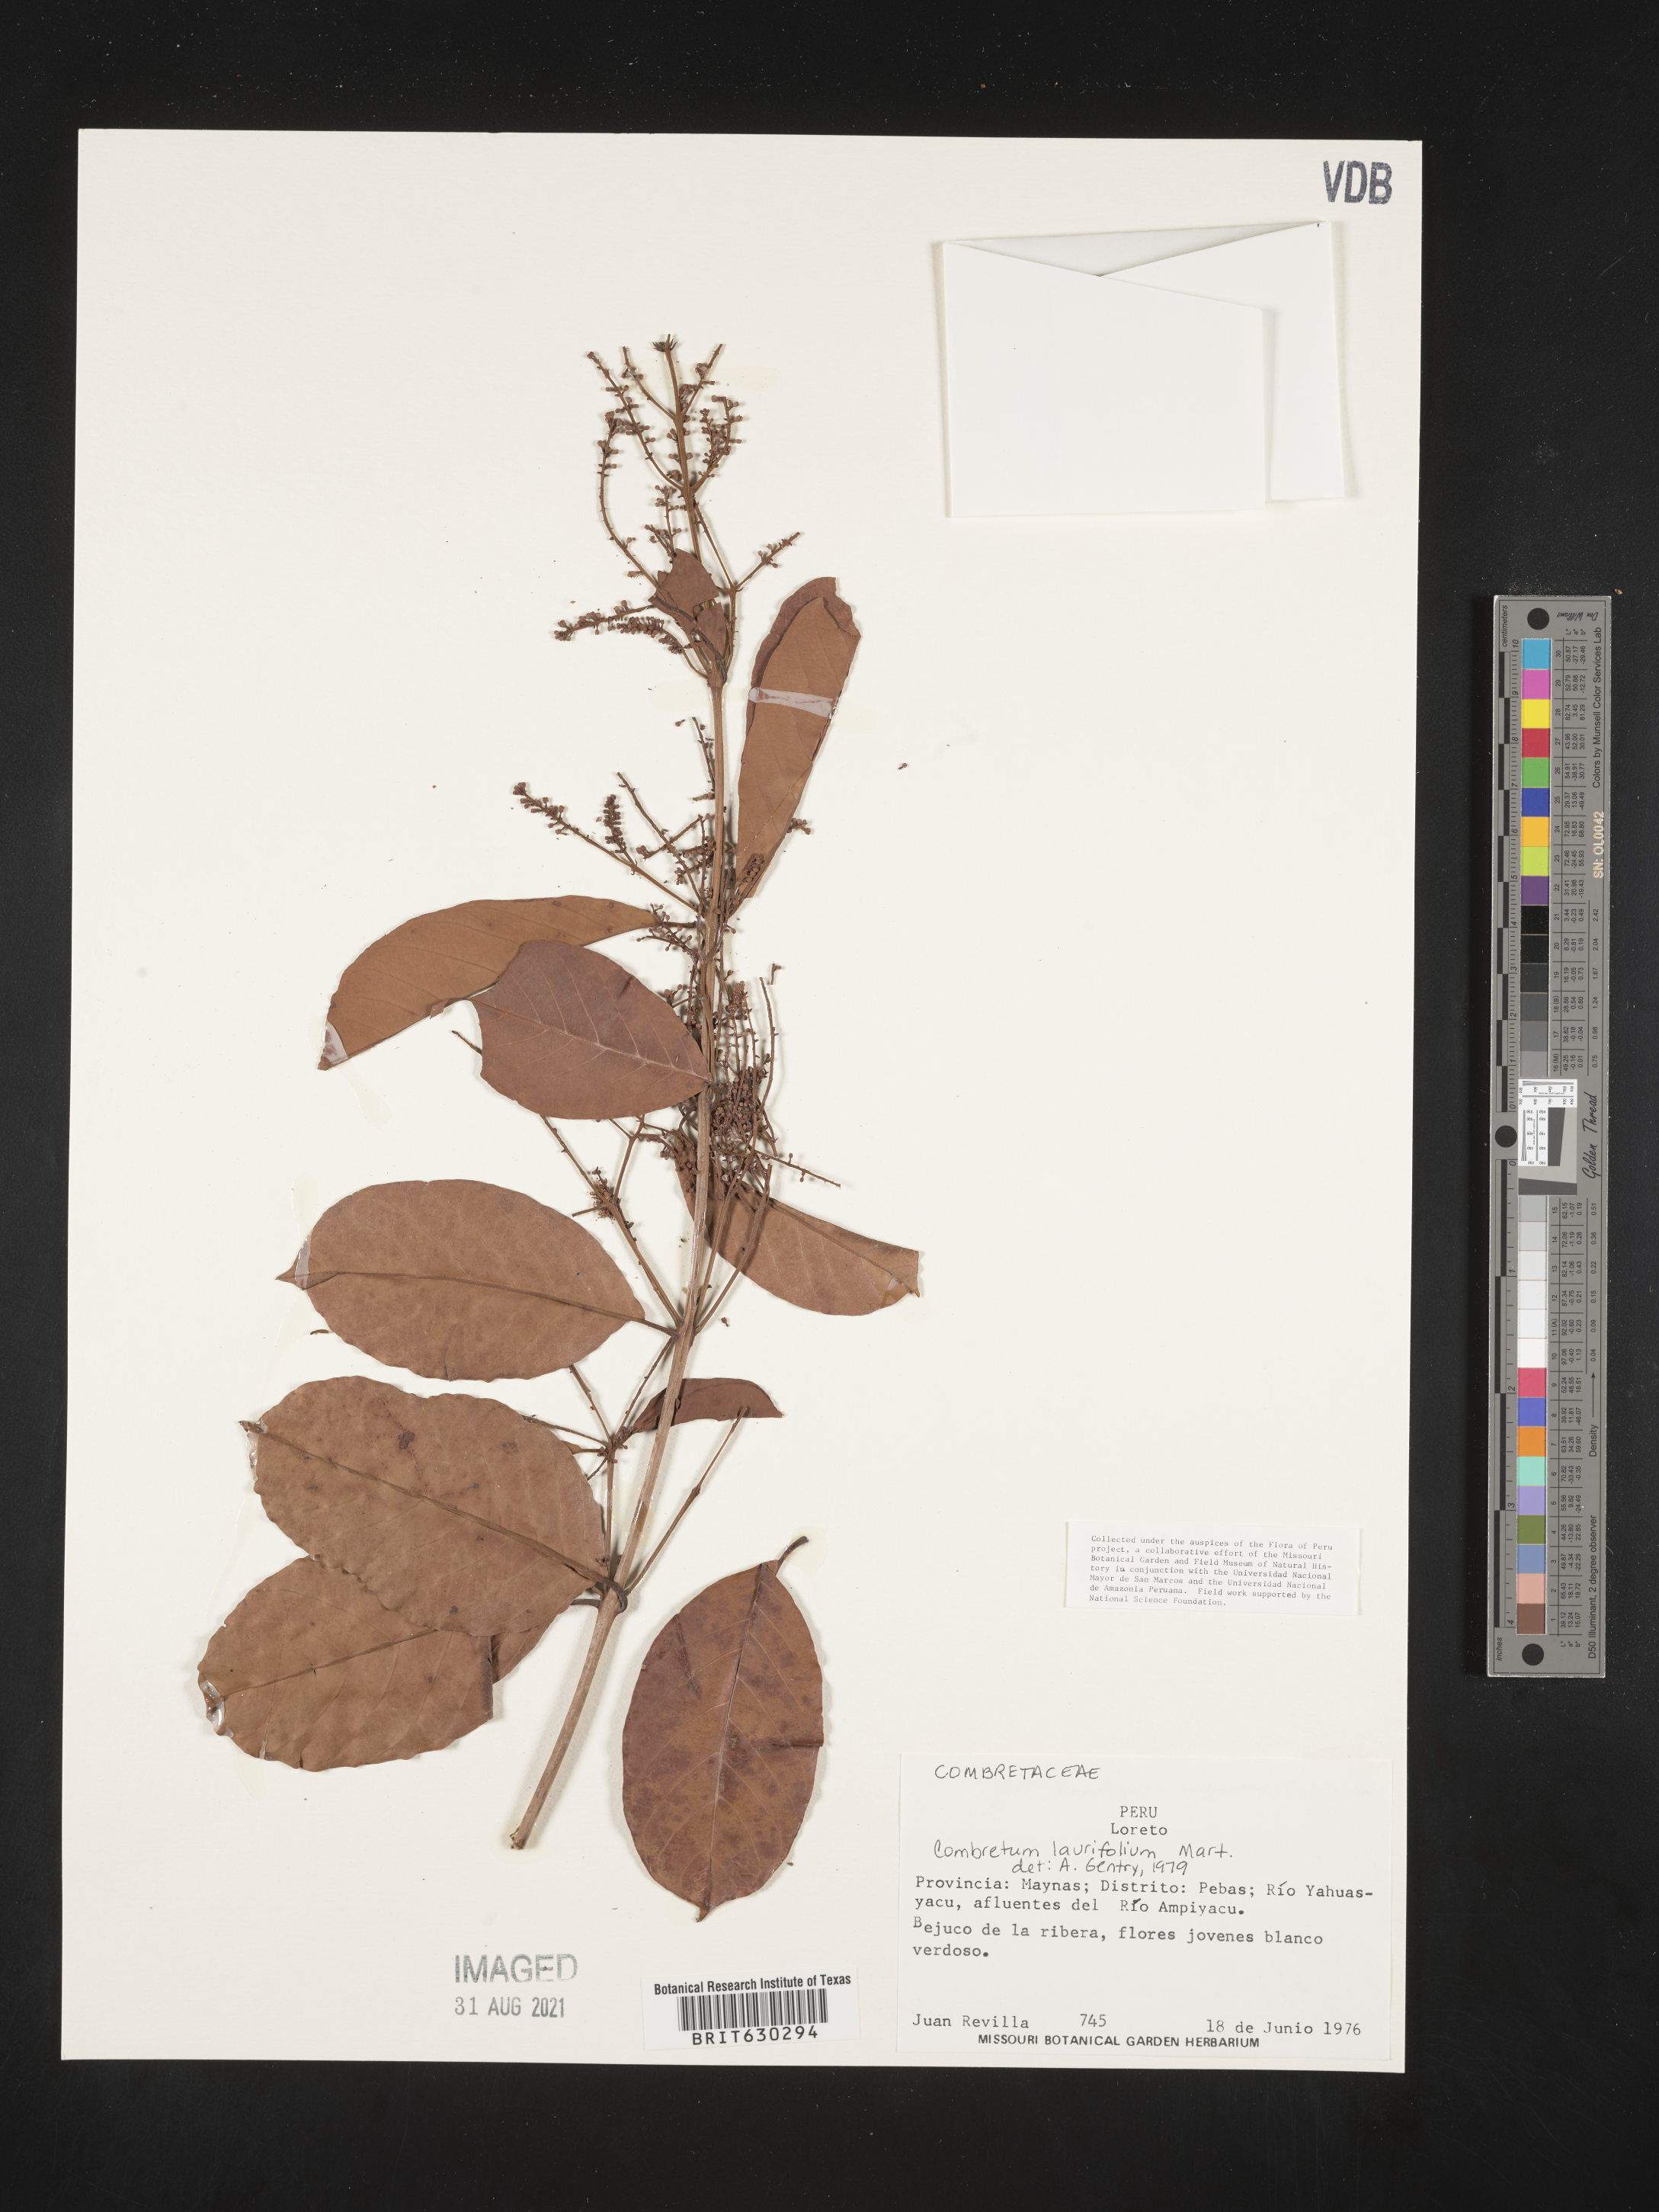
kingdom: Plantae
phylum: Tracheophyta
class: Magnoliopsida
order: Myrtales
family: Combretaceae
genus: Combretum
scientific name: Combretum laurifolium
